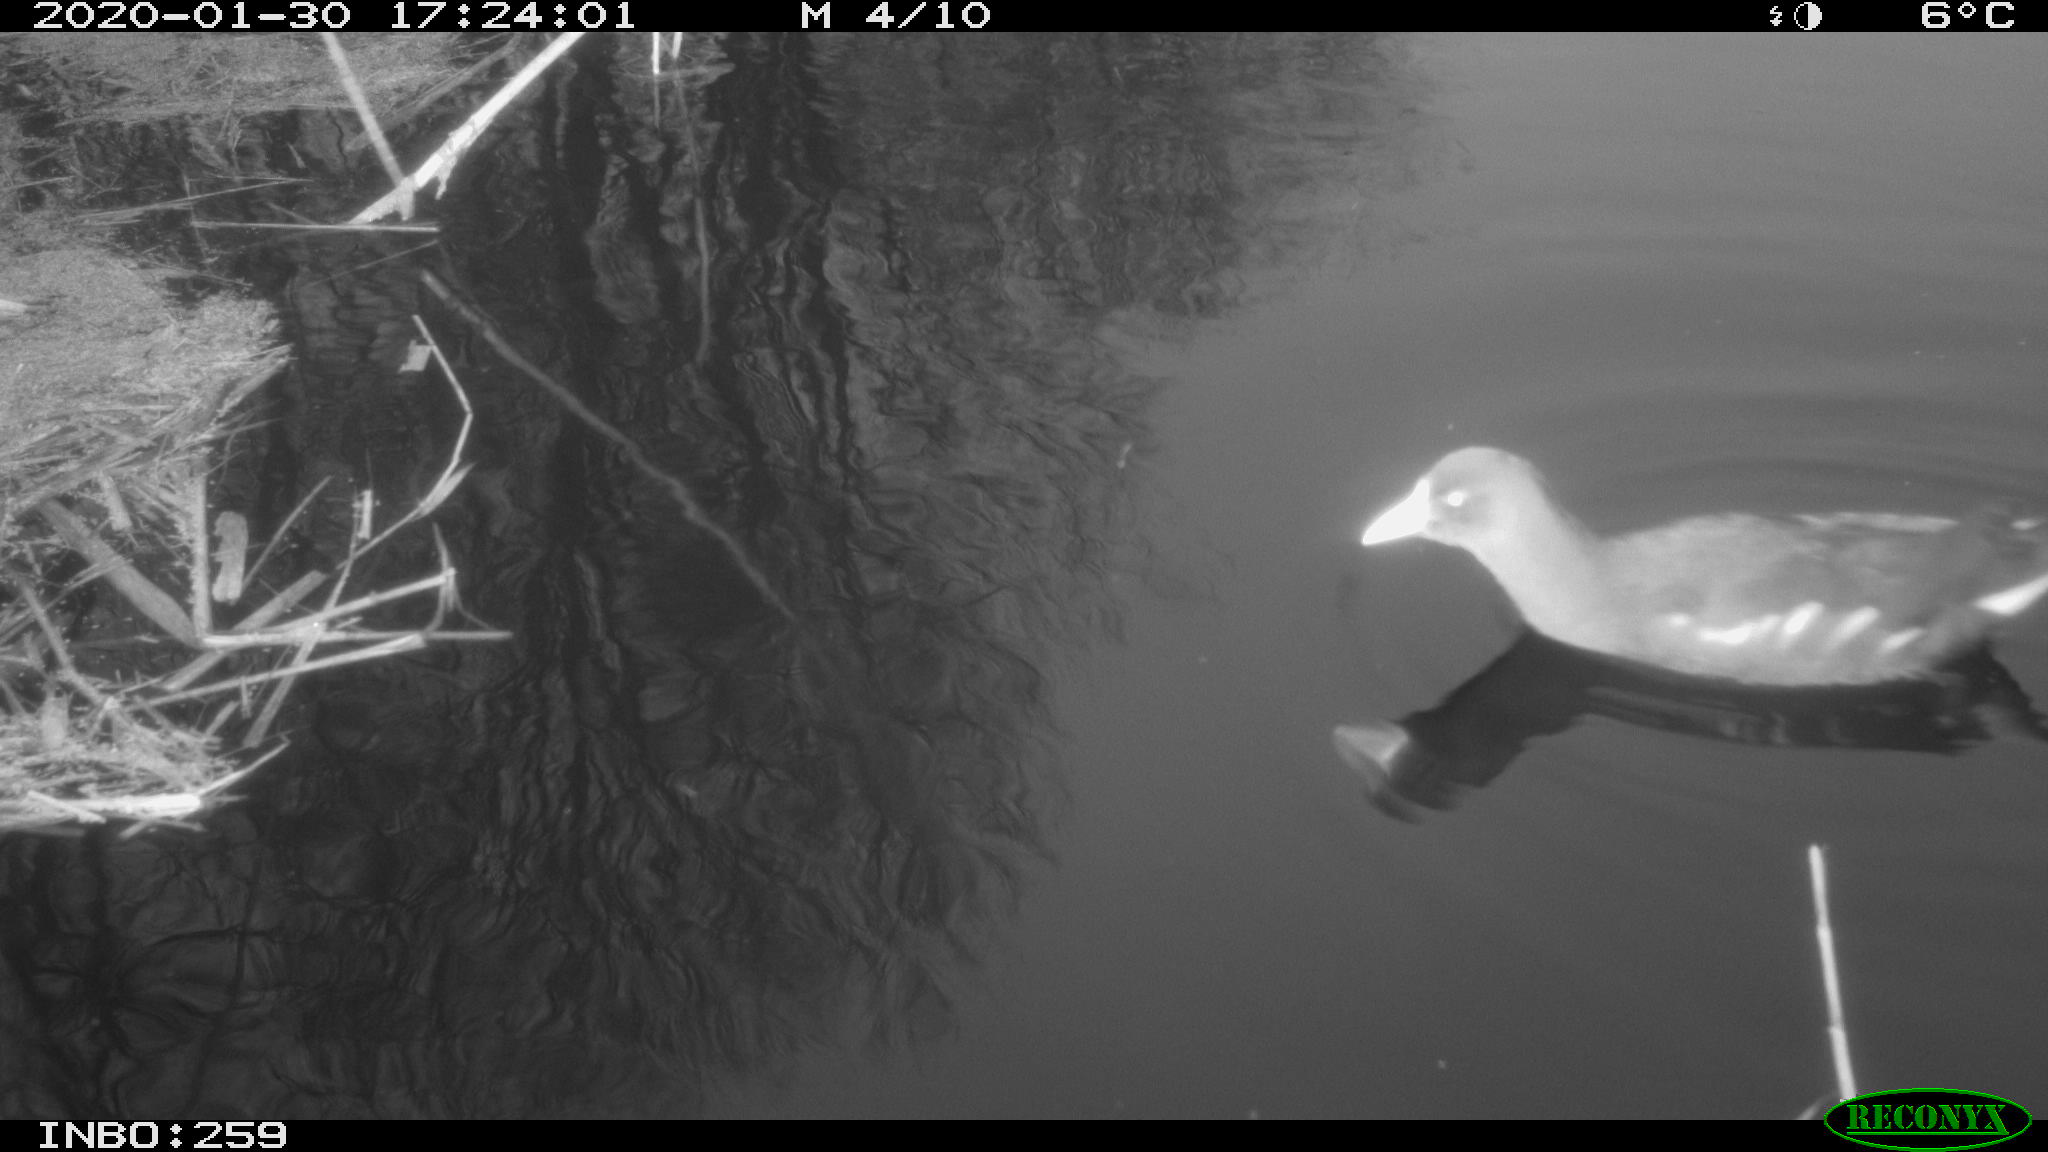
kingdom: Animalia
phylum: Chordata
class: Aves
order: Gruiformes
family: Rallidae
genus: Gallinula
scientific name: Gallinula chloropus
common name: Common moorhen
